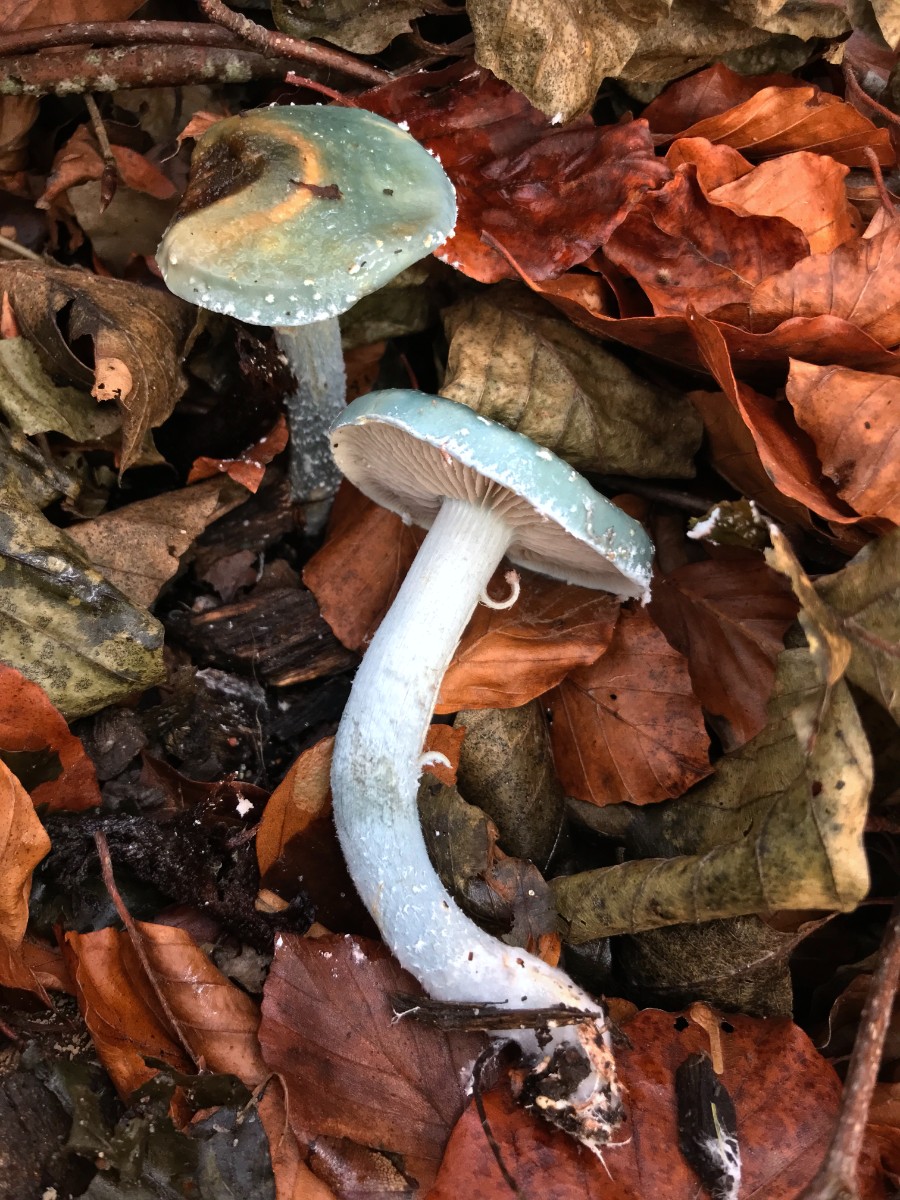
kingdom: Fungi
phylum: Basidiomycota
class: Agaricomycetes
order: Agaricales
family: Strophariaceae
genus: Stropharia
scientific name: Stropharia cyanea
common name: blågrøn bredblad
